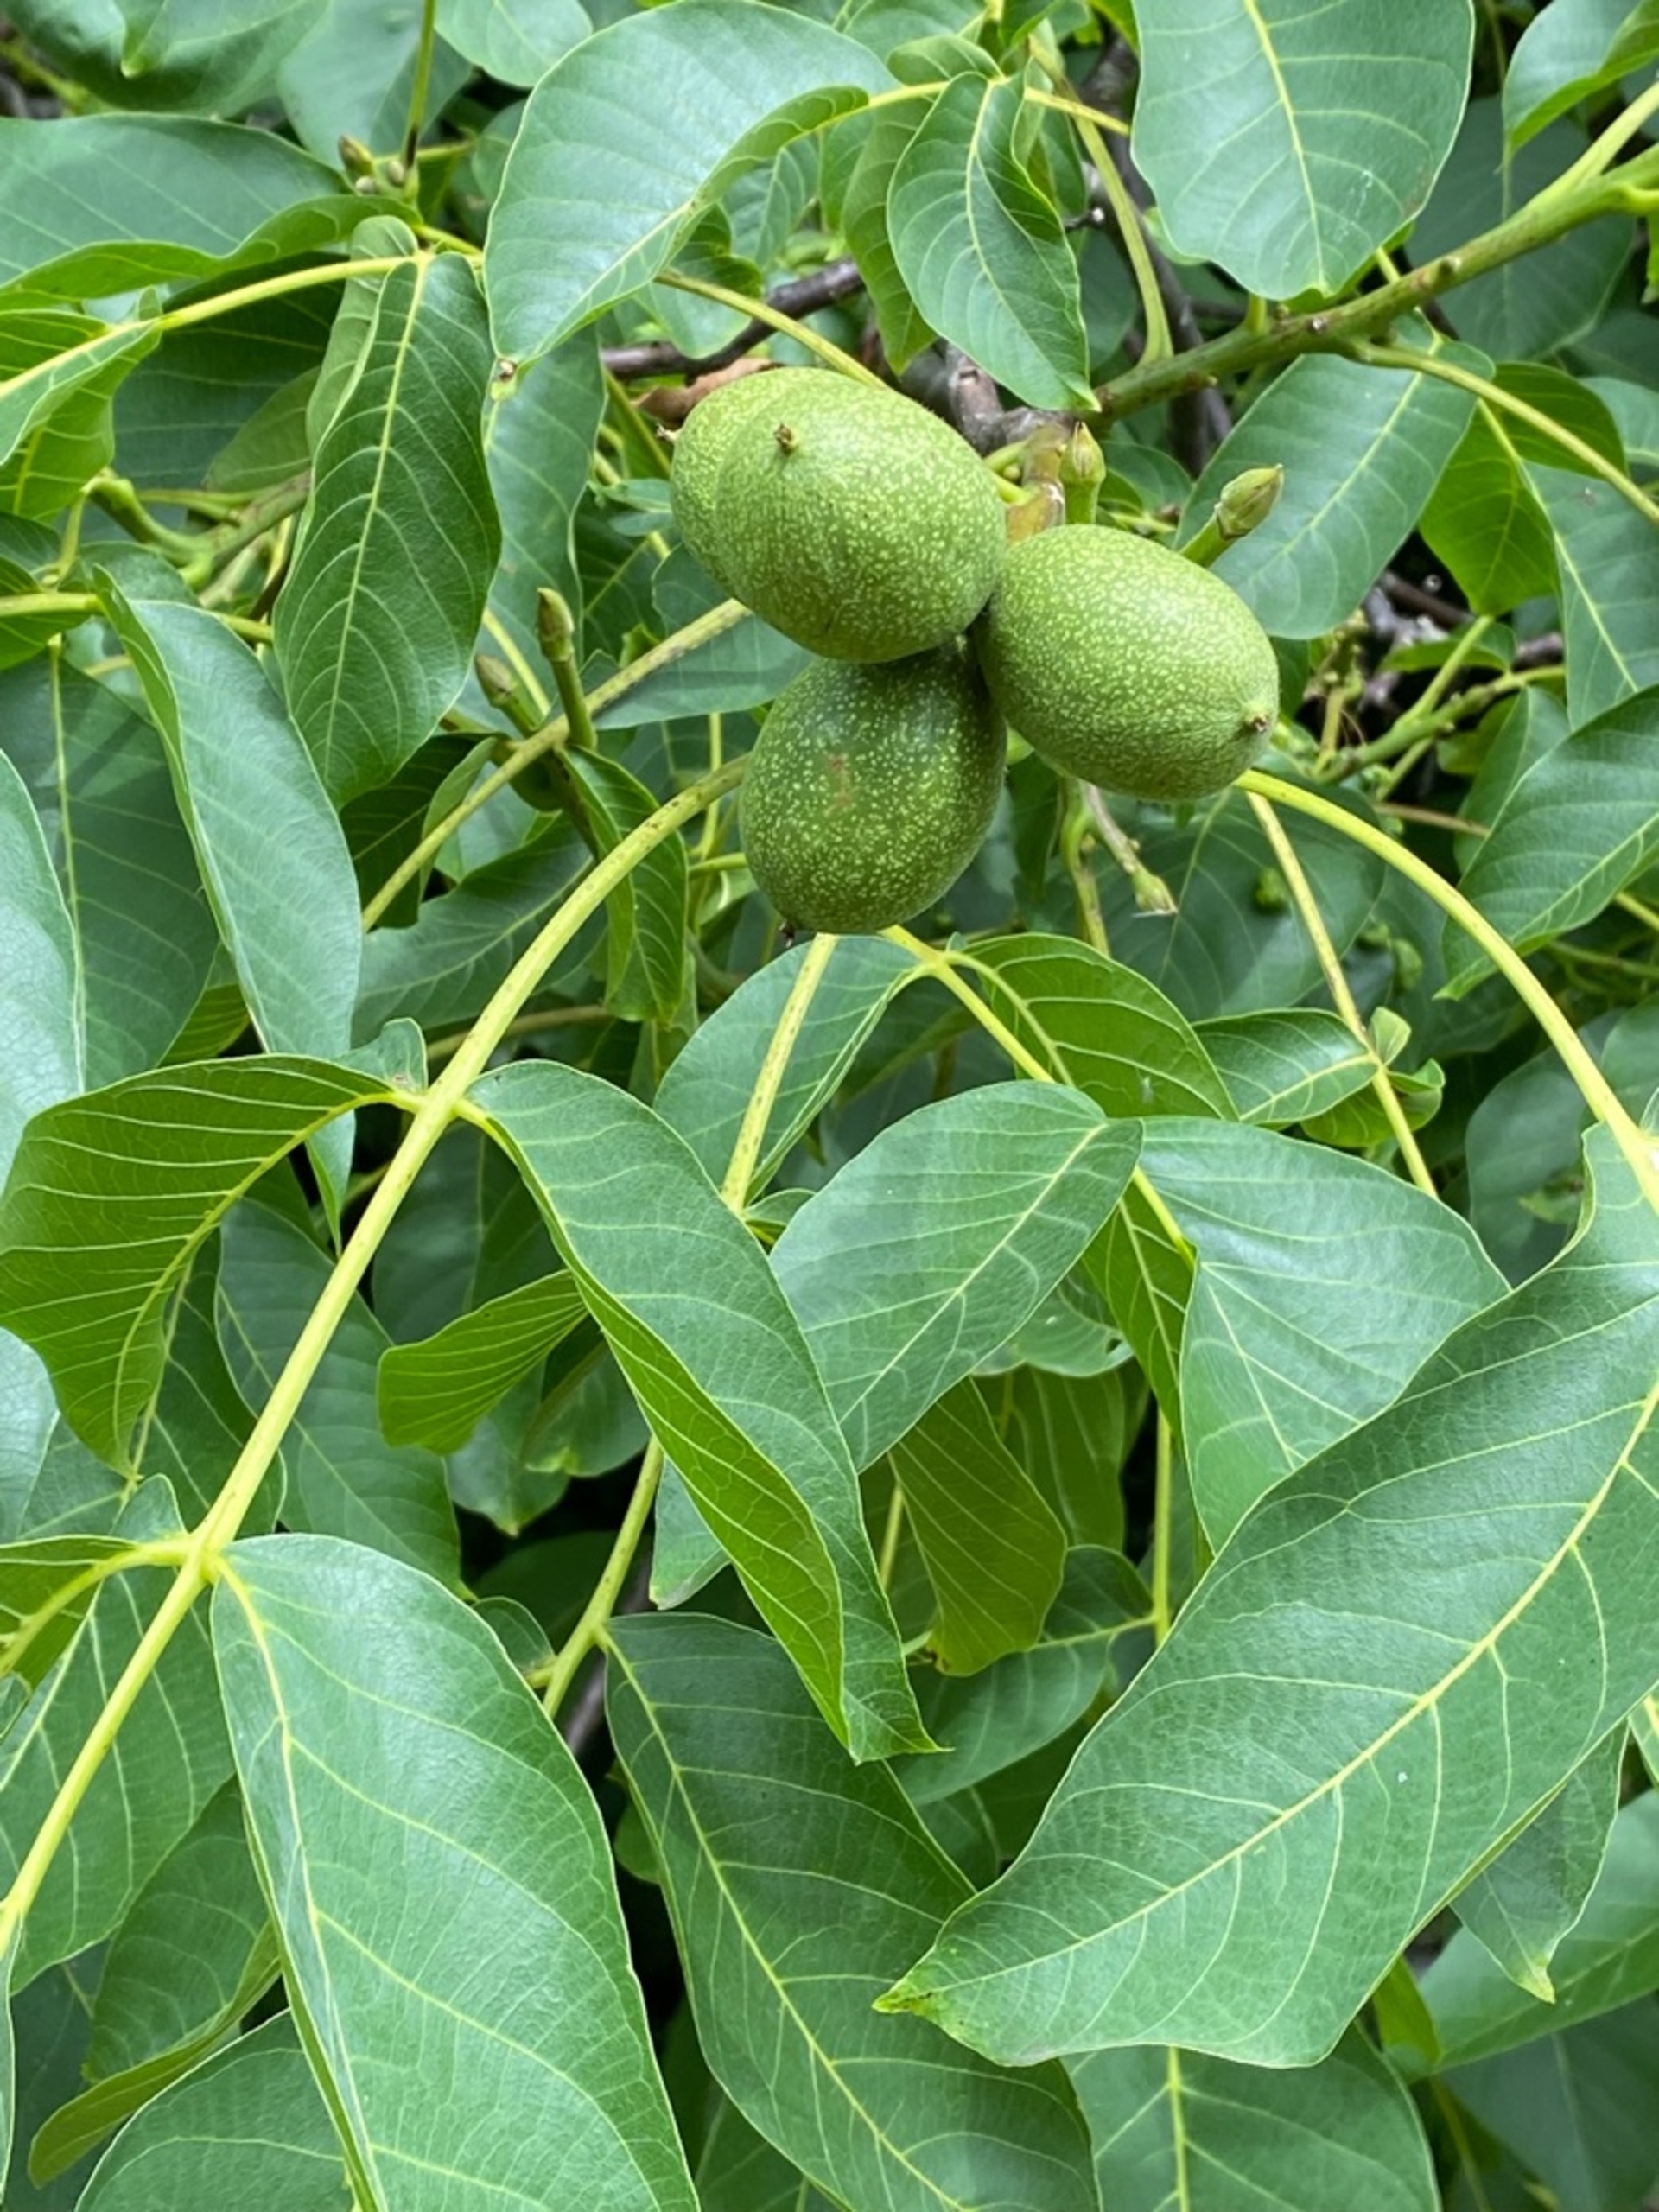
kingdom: Plantae
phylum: Tracheophyta
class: Magnoliopsida
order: Fagales
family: Juglandaceae
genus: Juglans
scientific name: Juglans regia
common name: Almindelig valnød
